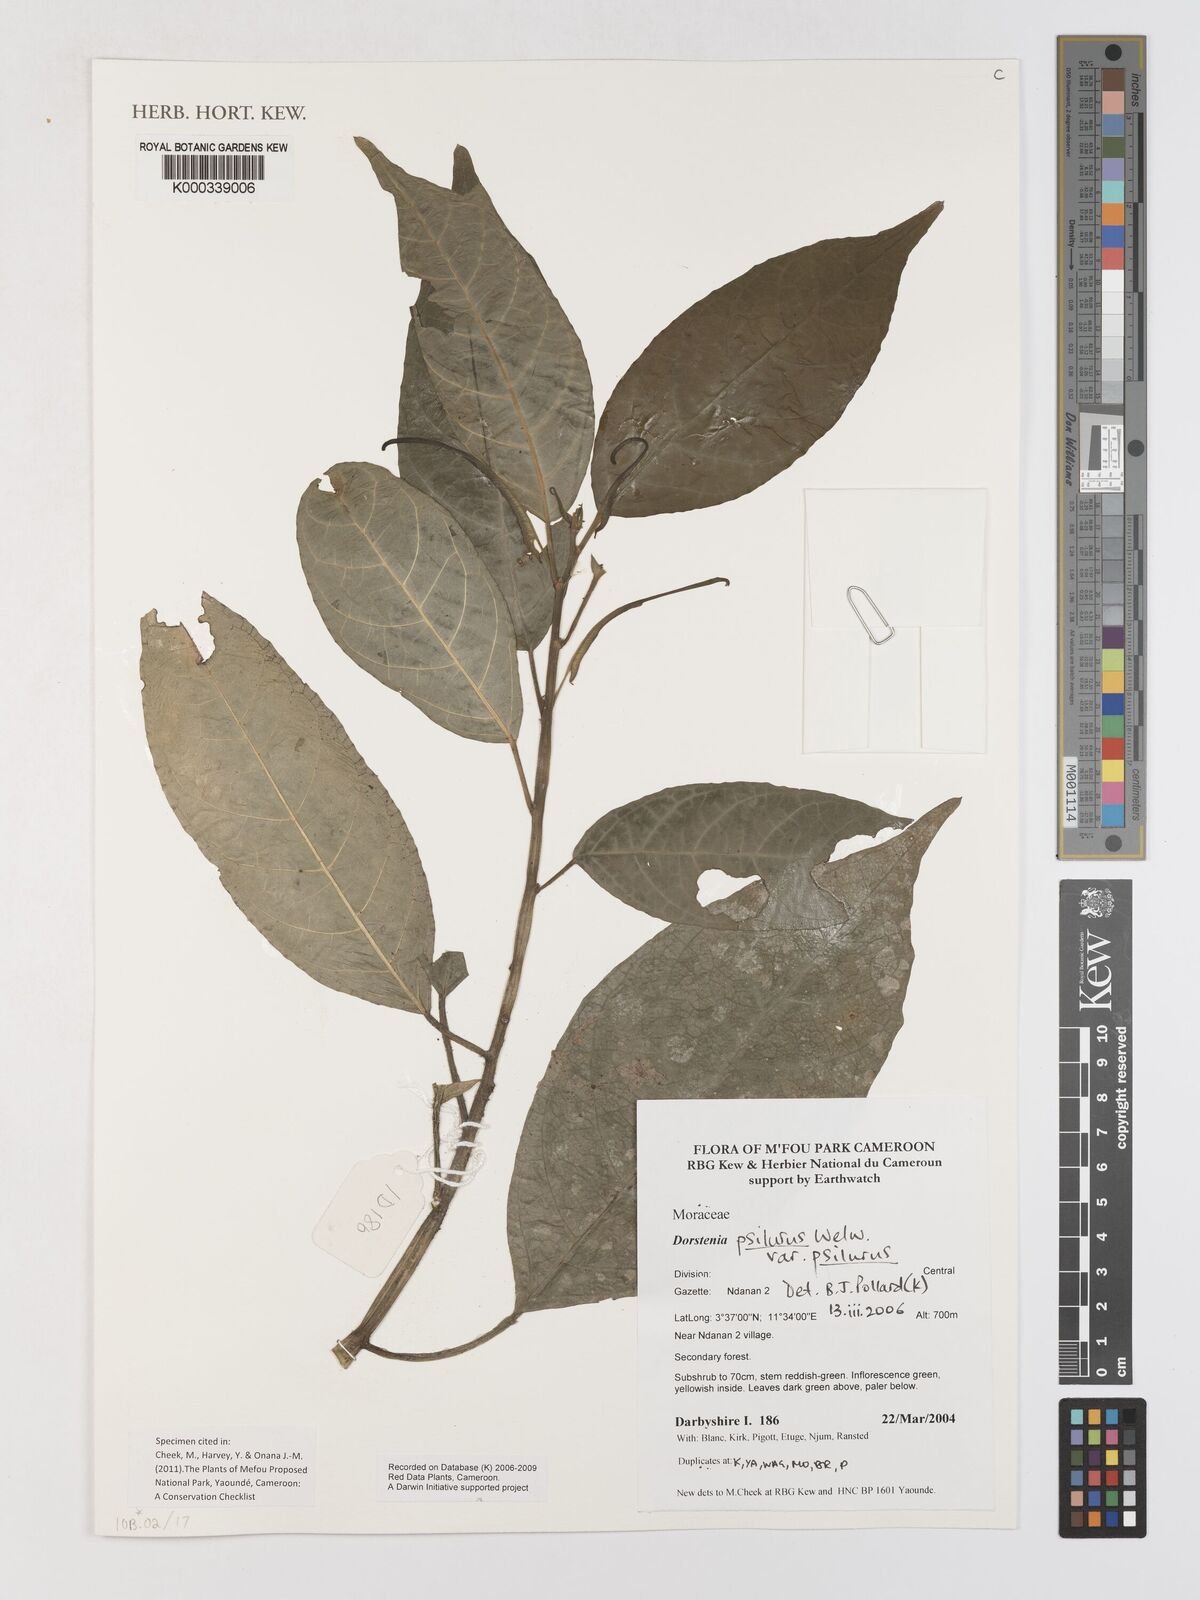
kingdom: Plantae
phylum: Tracheophyta
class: Magnoliopsida
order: Rosales
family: Moraceae
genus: Dorstenia
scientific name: Dorstenia psilurus
